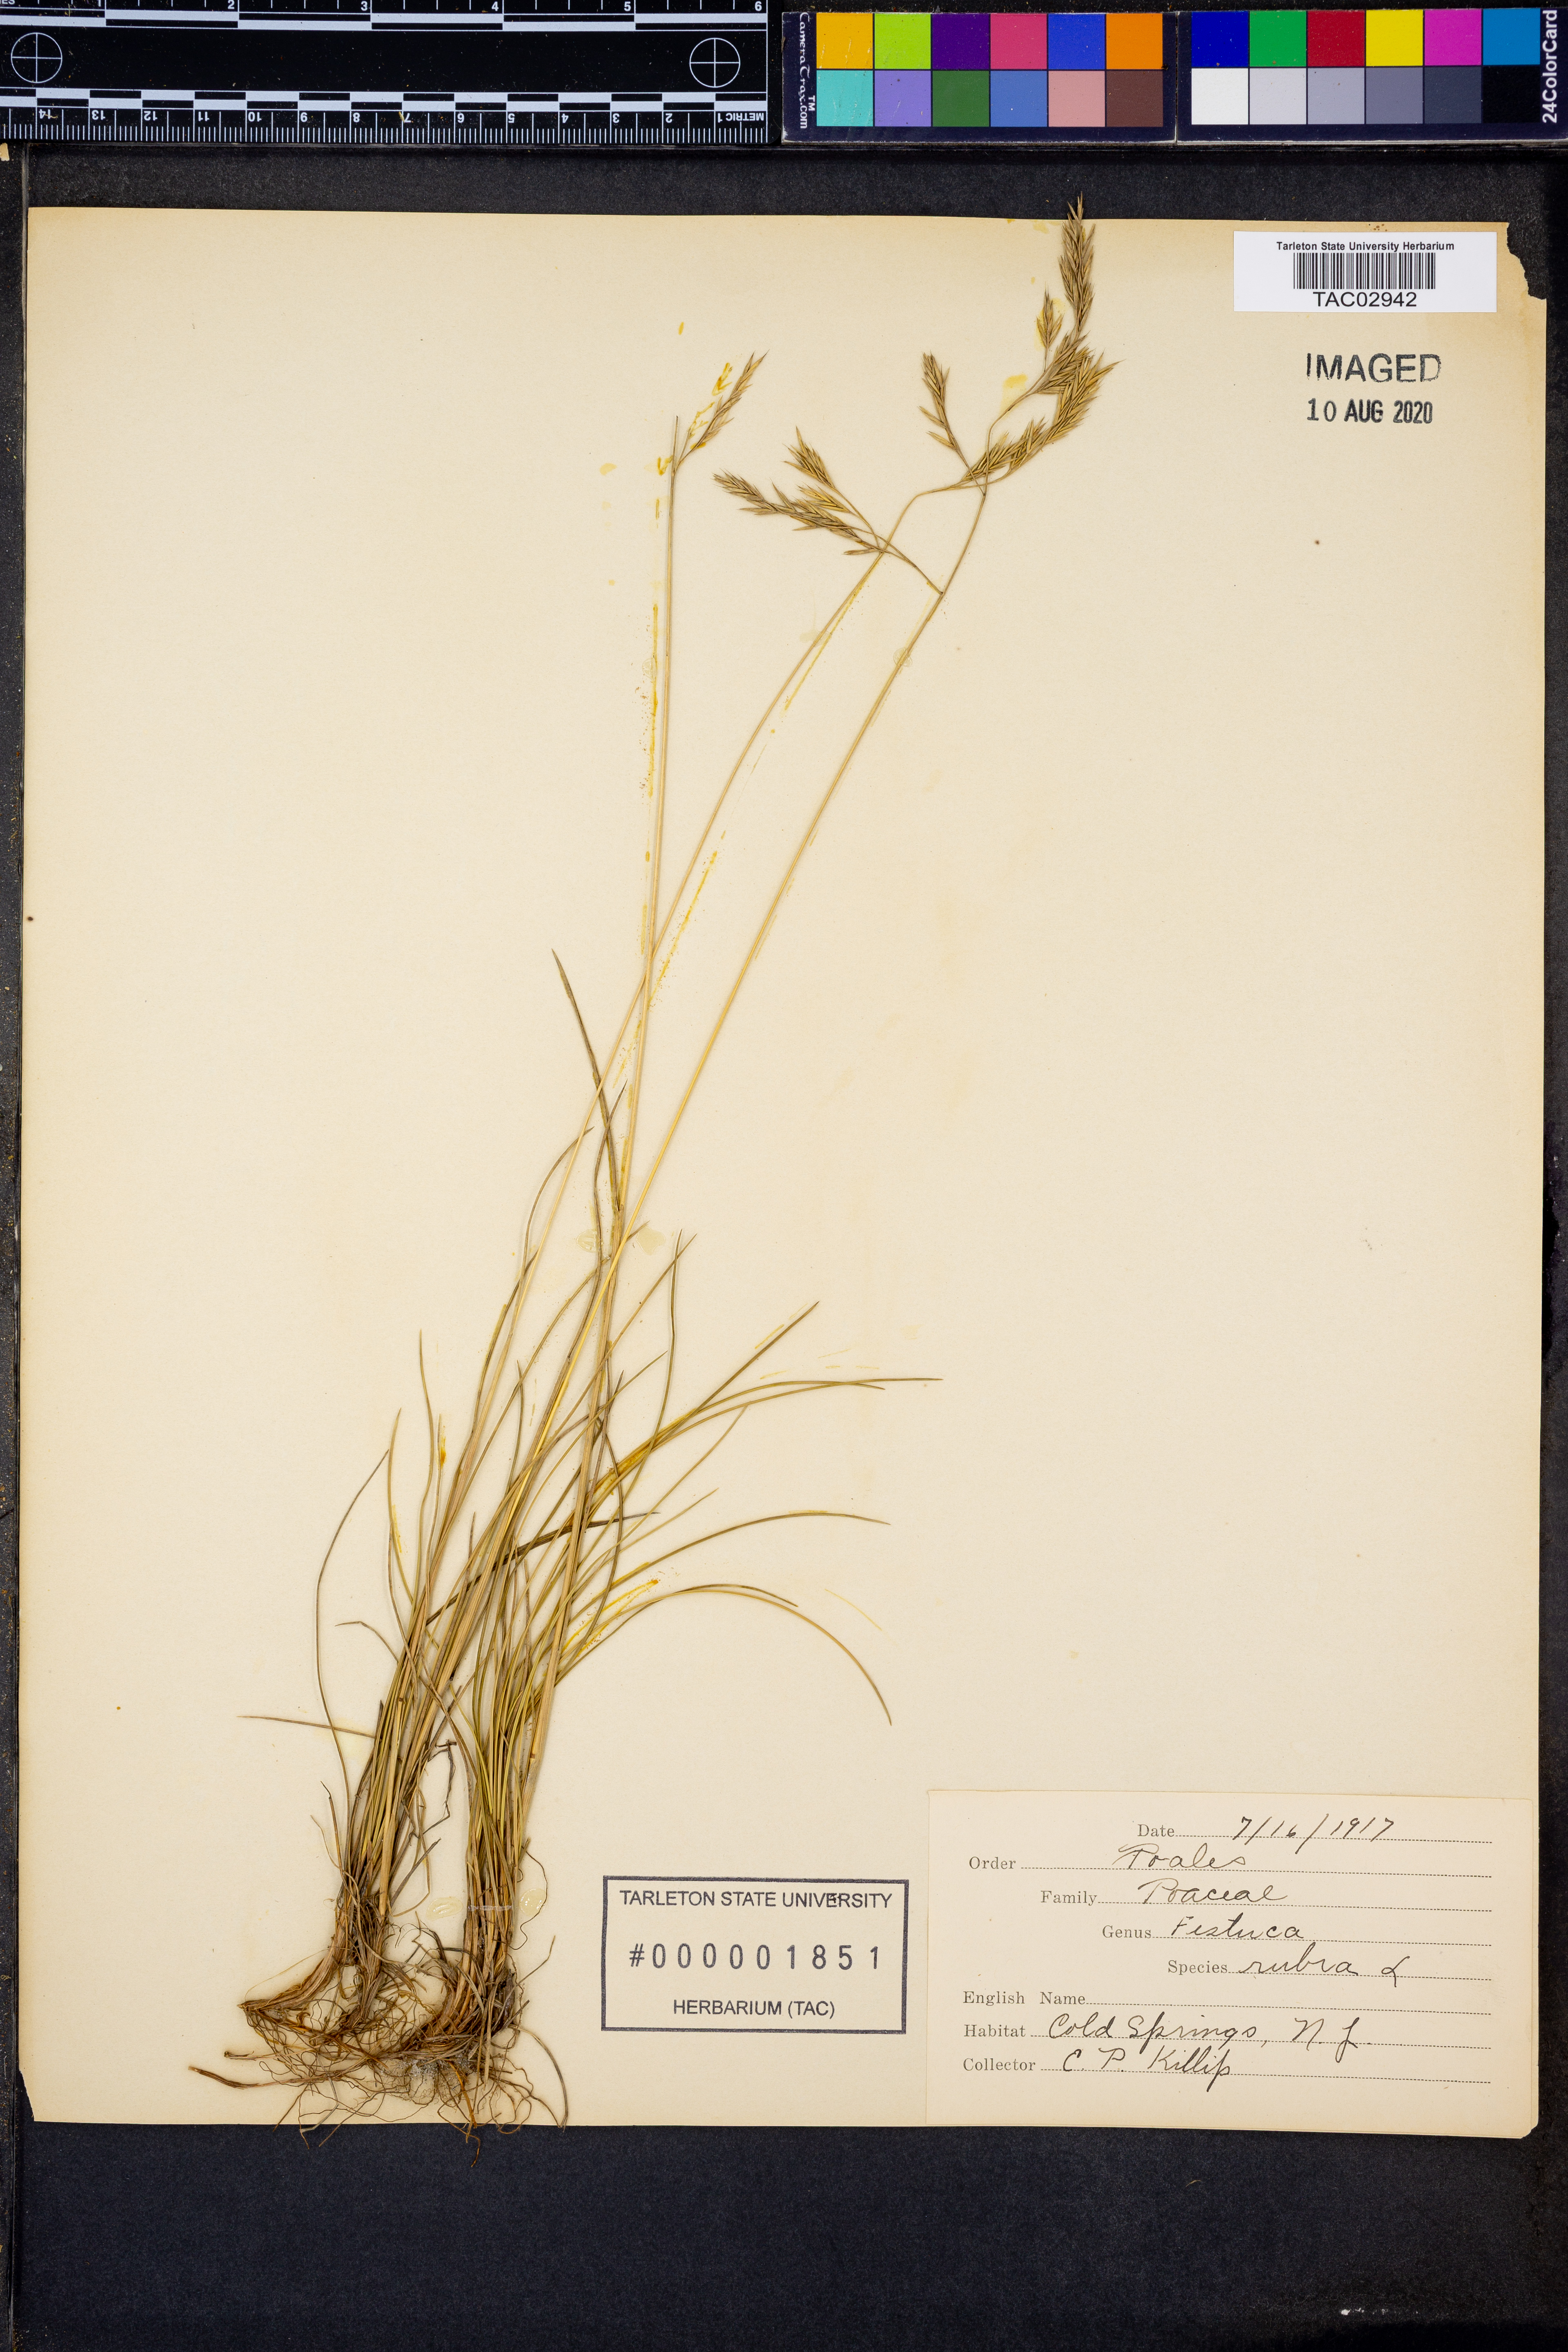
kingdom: Plantae
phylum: Tracheophyta
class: Liliopsida
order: Poales
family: Poaceae
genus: Festuca
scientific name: Festuca rubra
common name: Red fescue
